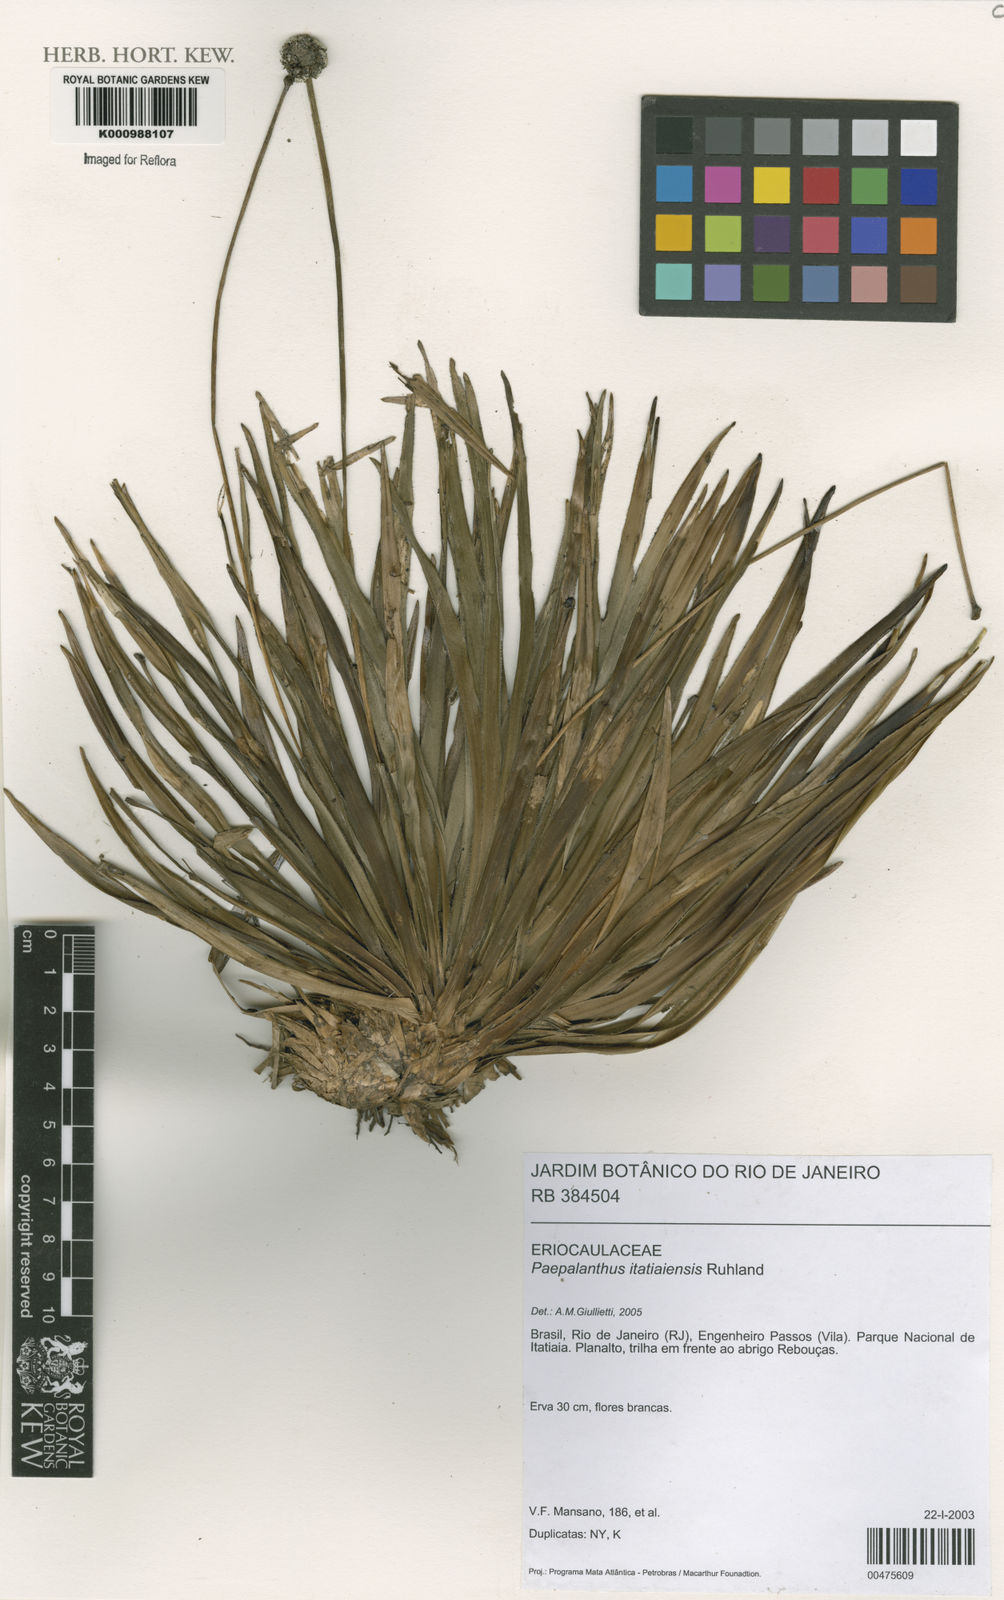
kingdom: Plantae
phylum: Tracheophyta
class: Liliopsida
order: Poales
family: Eriocaulaceae
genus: Paepalanthus
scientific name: Paepalanthus itatiaiensis
